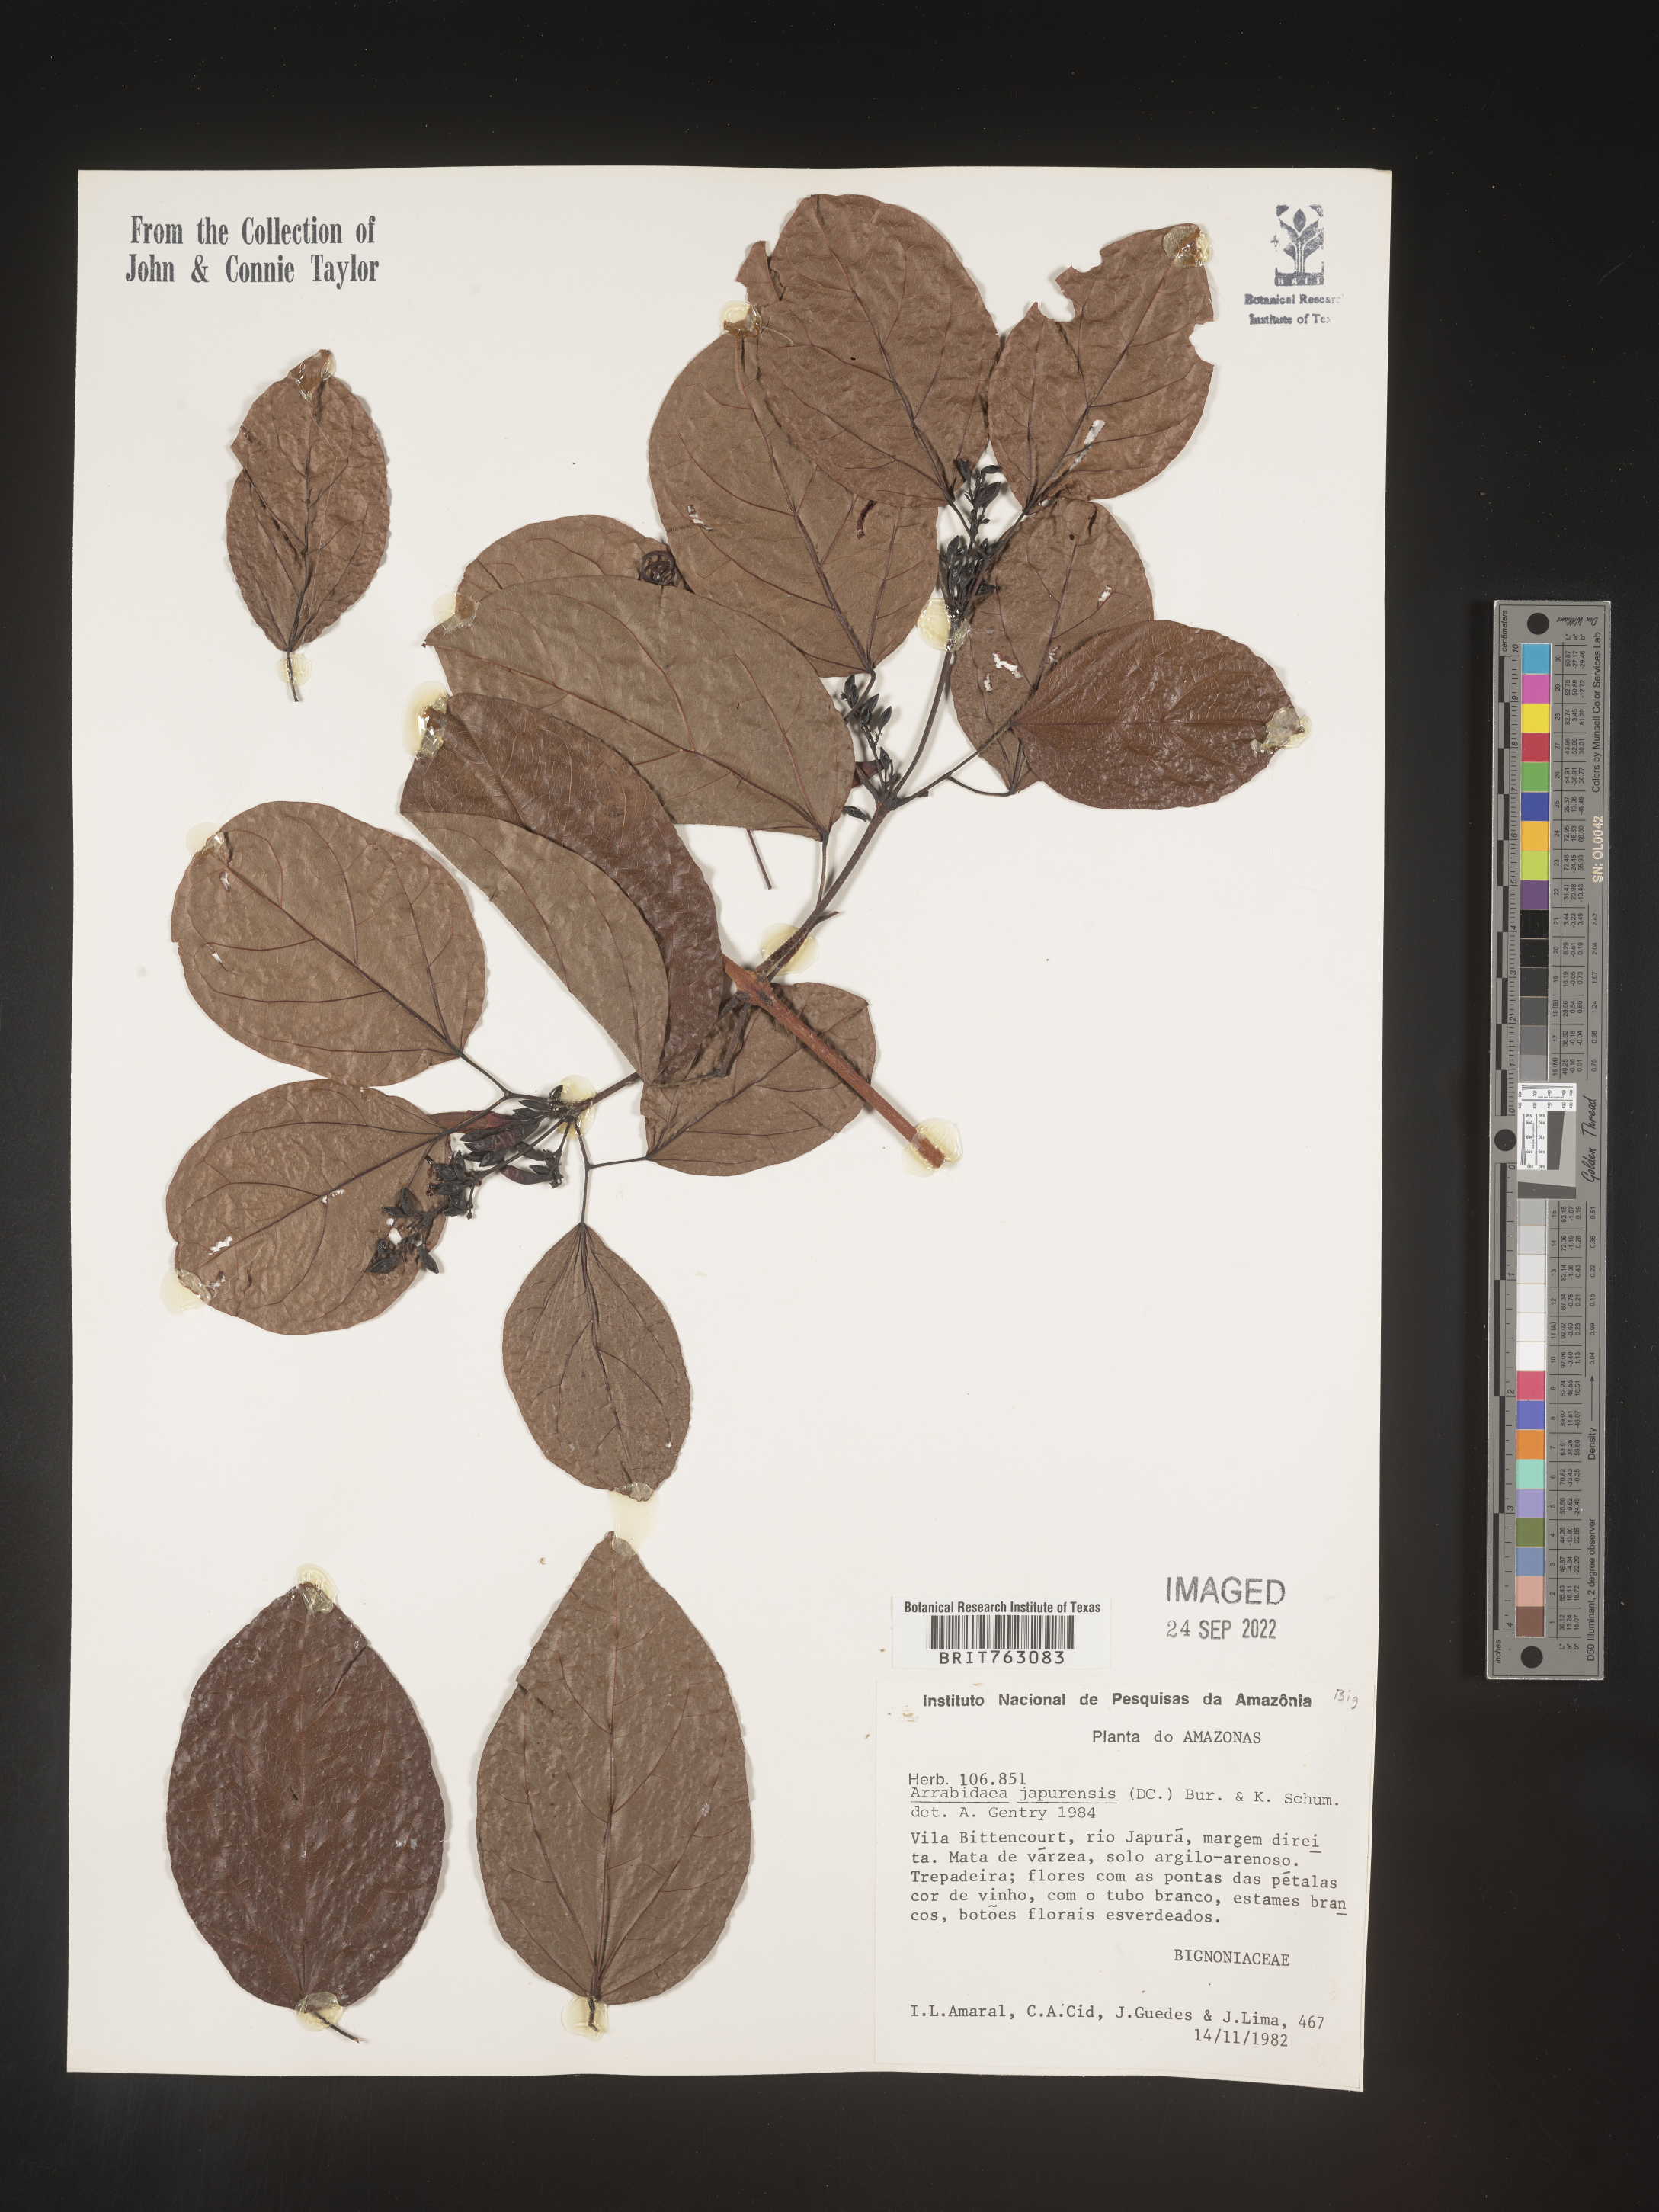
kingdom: Plantae
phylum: Tracheophyta
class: Magnoliopsida
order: Rosales
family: Rhamnaceae
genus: Arrabidaea
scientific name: Arrabidaea
